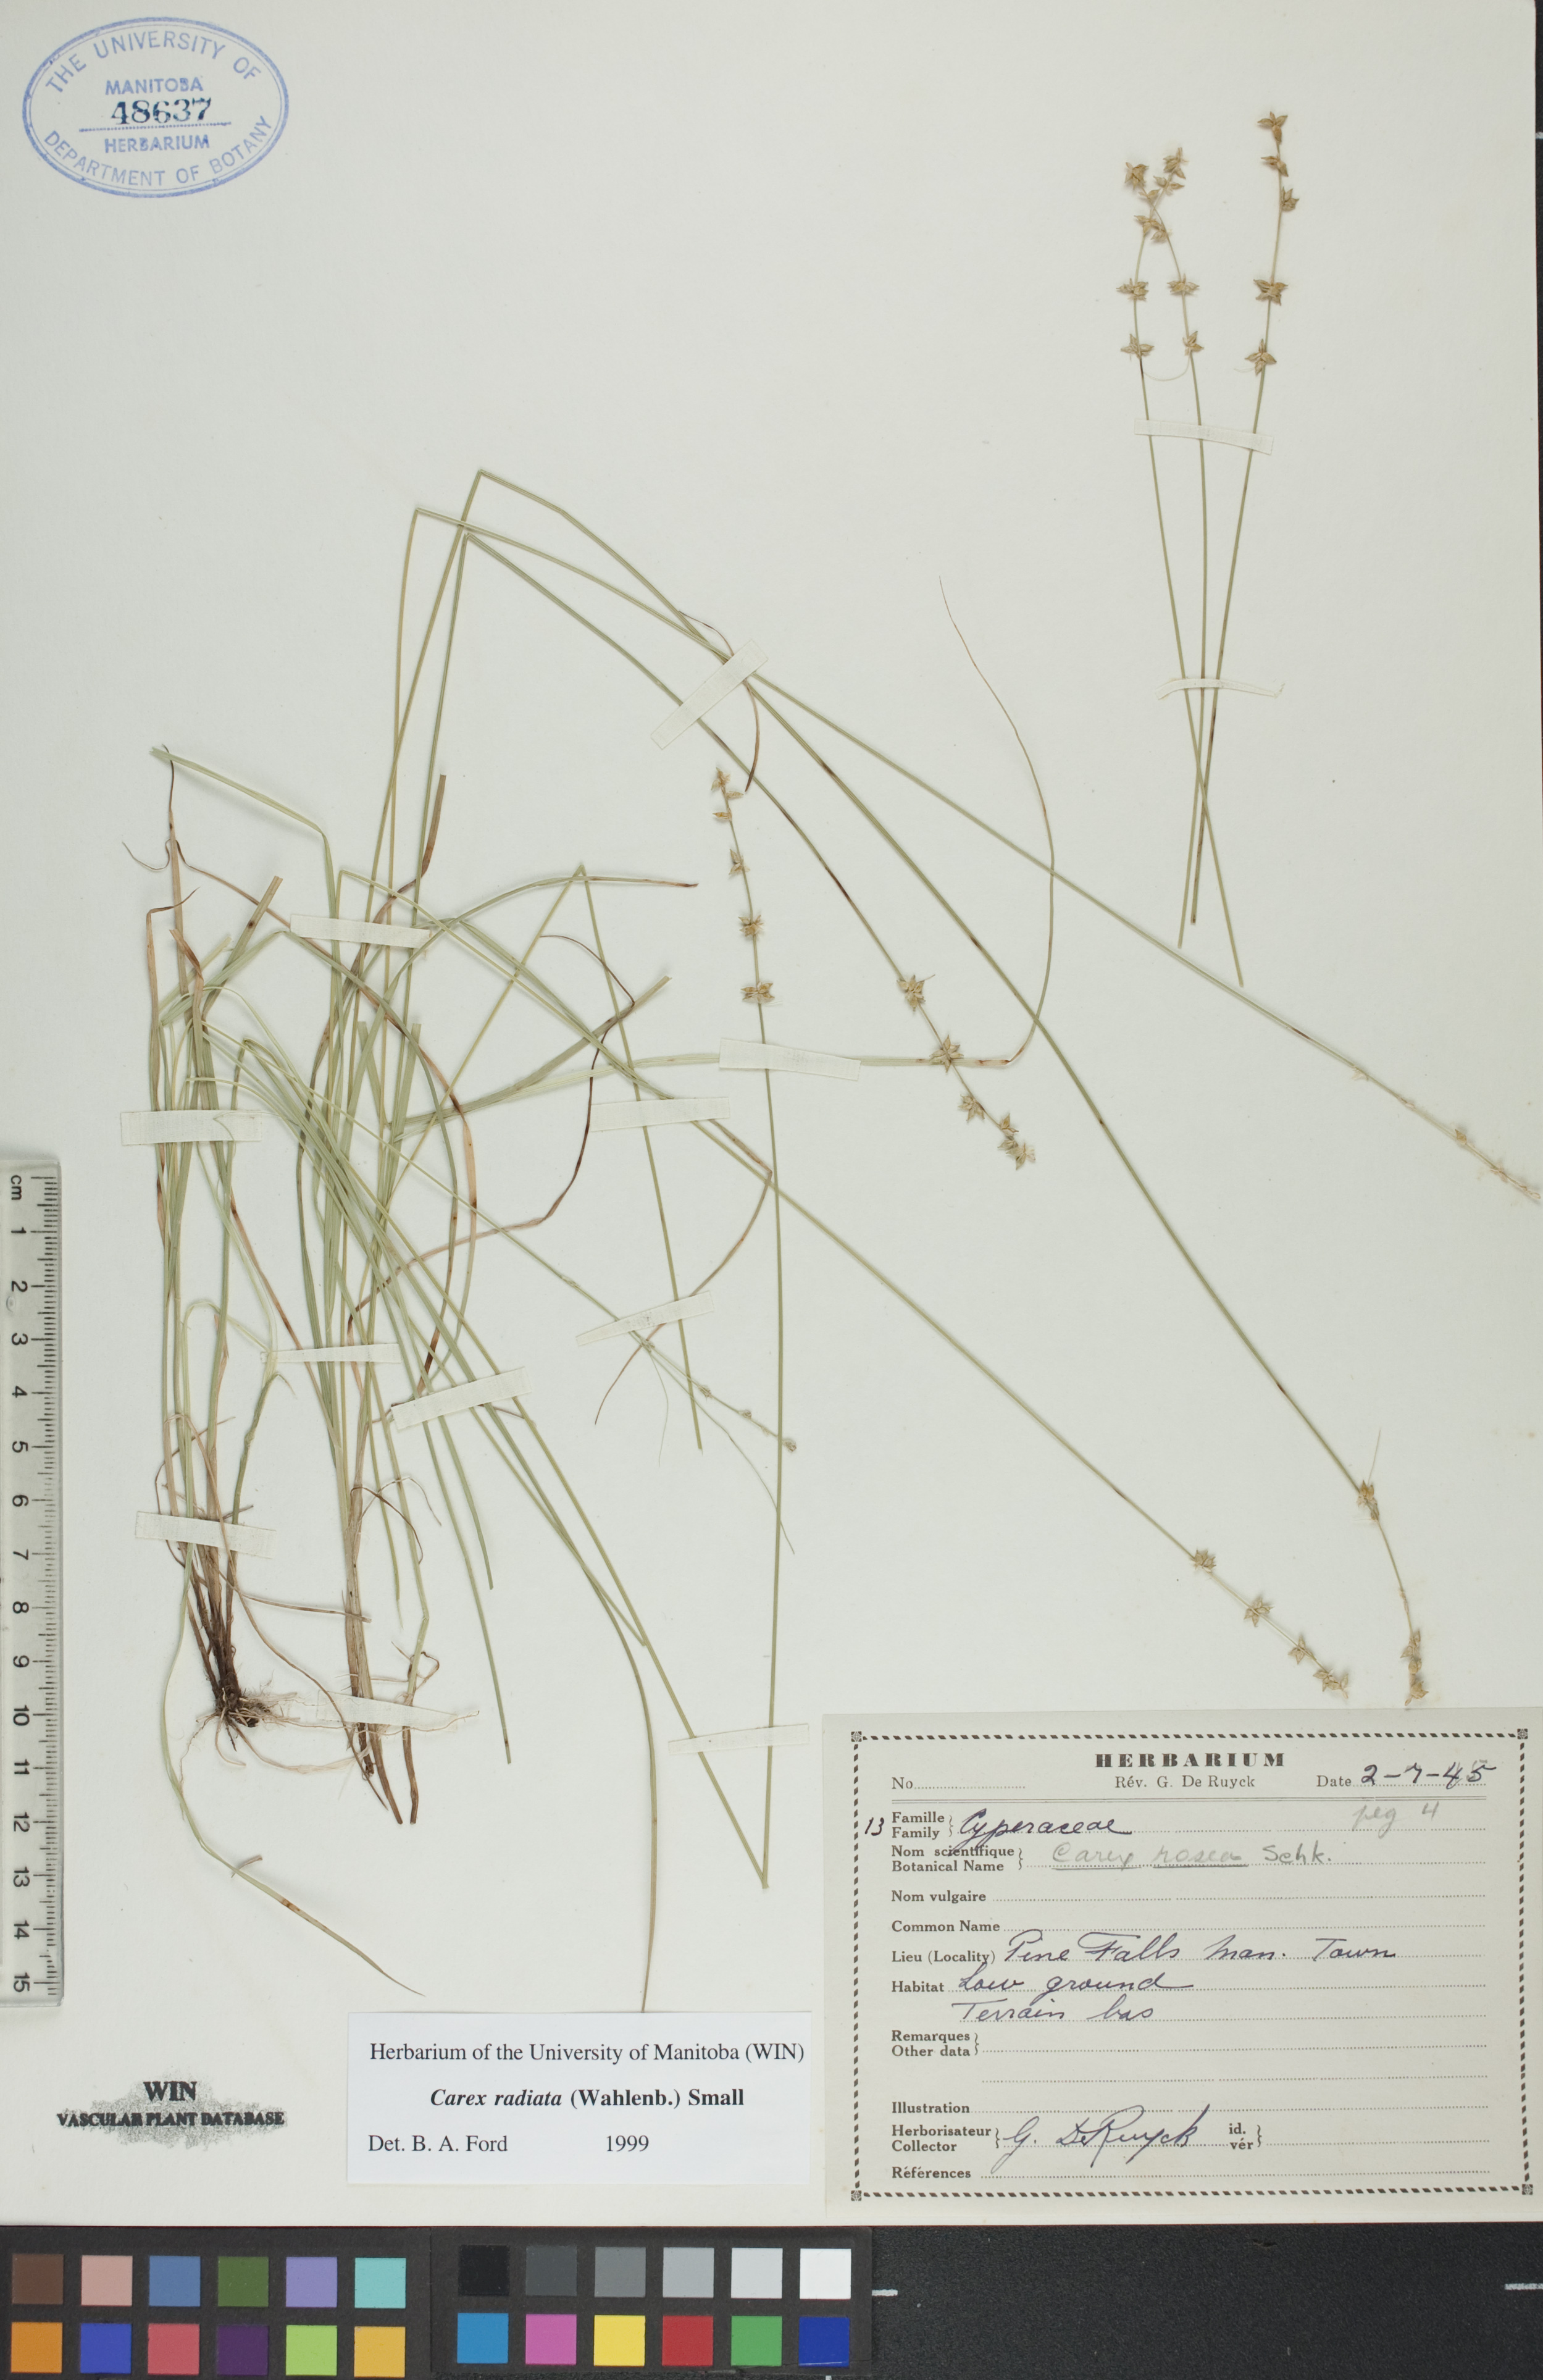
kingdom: Plantae
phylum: Tracheophyta
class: Liliopsida
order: Poales
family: Cyperaceae
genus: Carex
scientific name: Carex radiata
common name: Eastern star sedge
